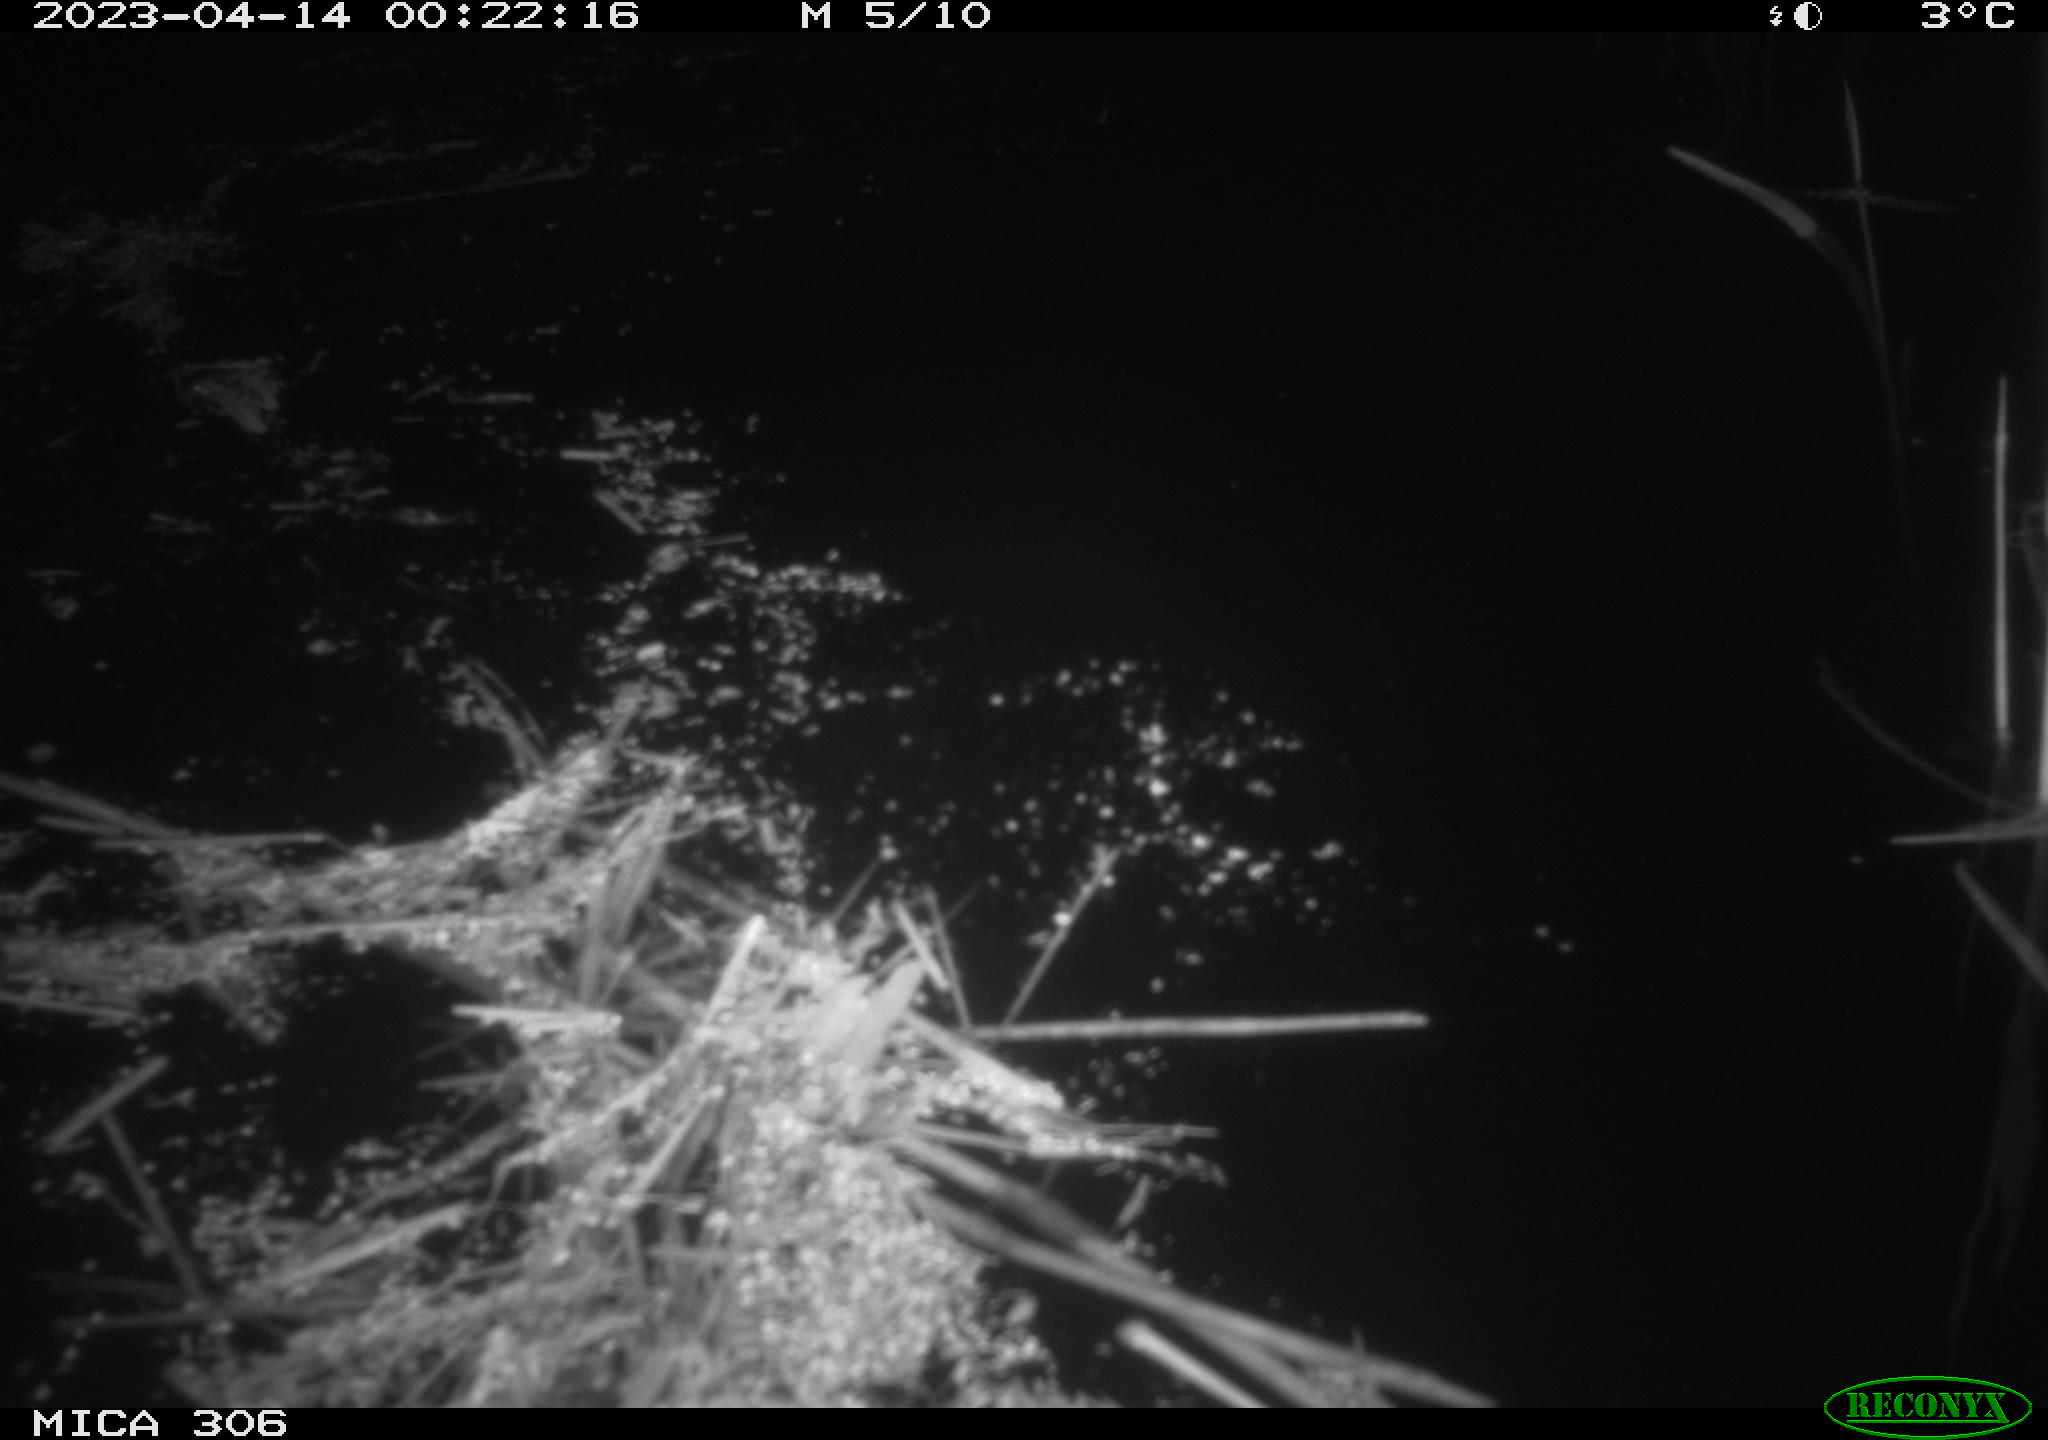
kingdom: Animalia
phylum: Chordata
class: Aves
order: Anseriformes
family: Anatidae
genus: Anas
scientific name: Anas
